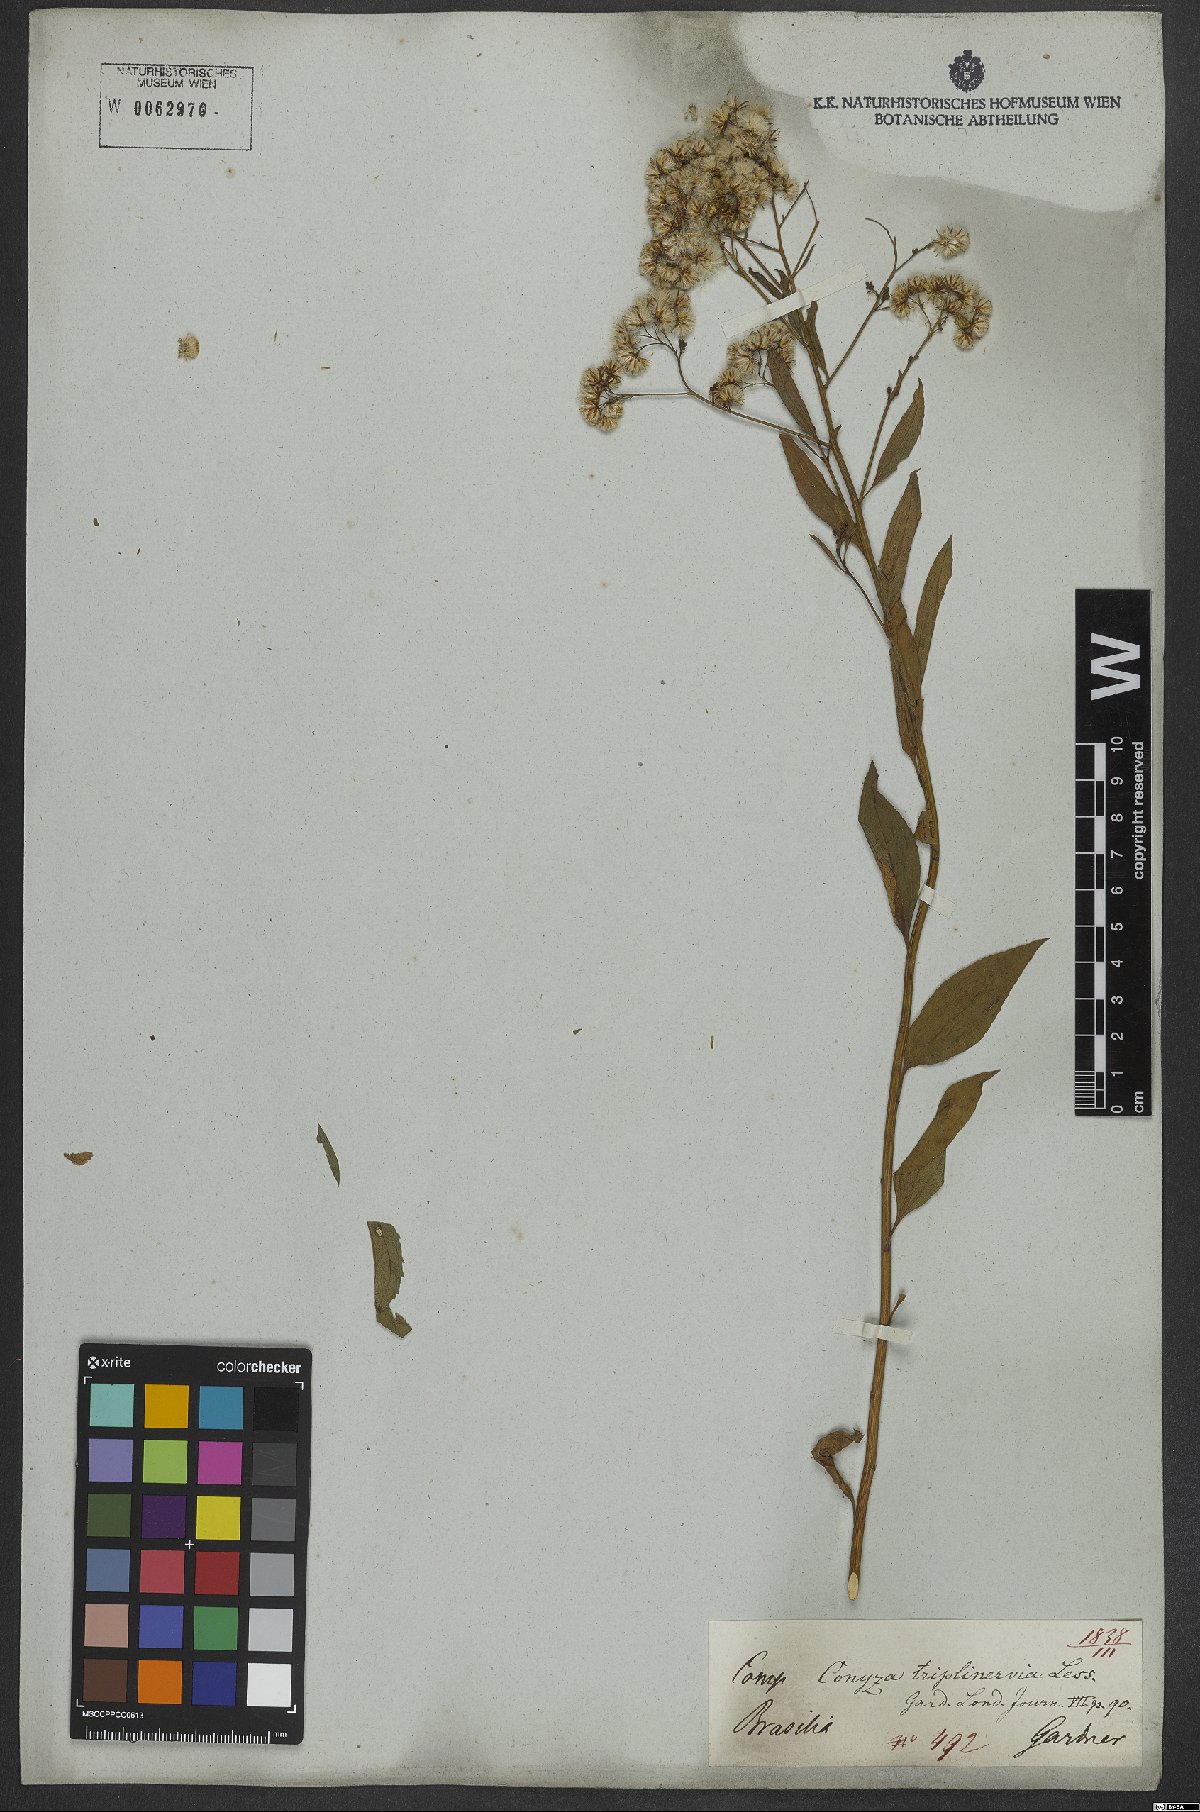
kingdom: Plantae
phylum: Tracheophyta
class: Magnoliopsida
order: Asterales
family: Asteraceae
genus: Archibaccharis
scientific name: Archibaccharis vulneraria
